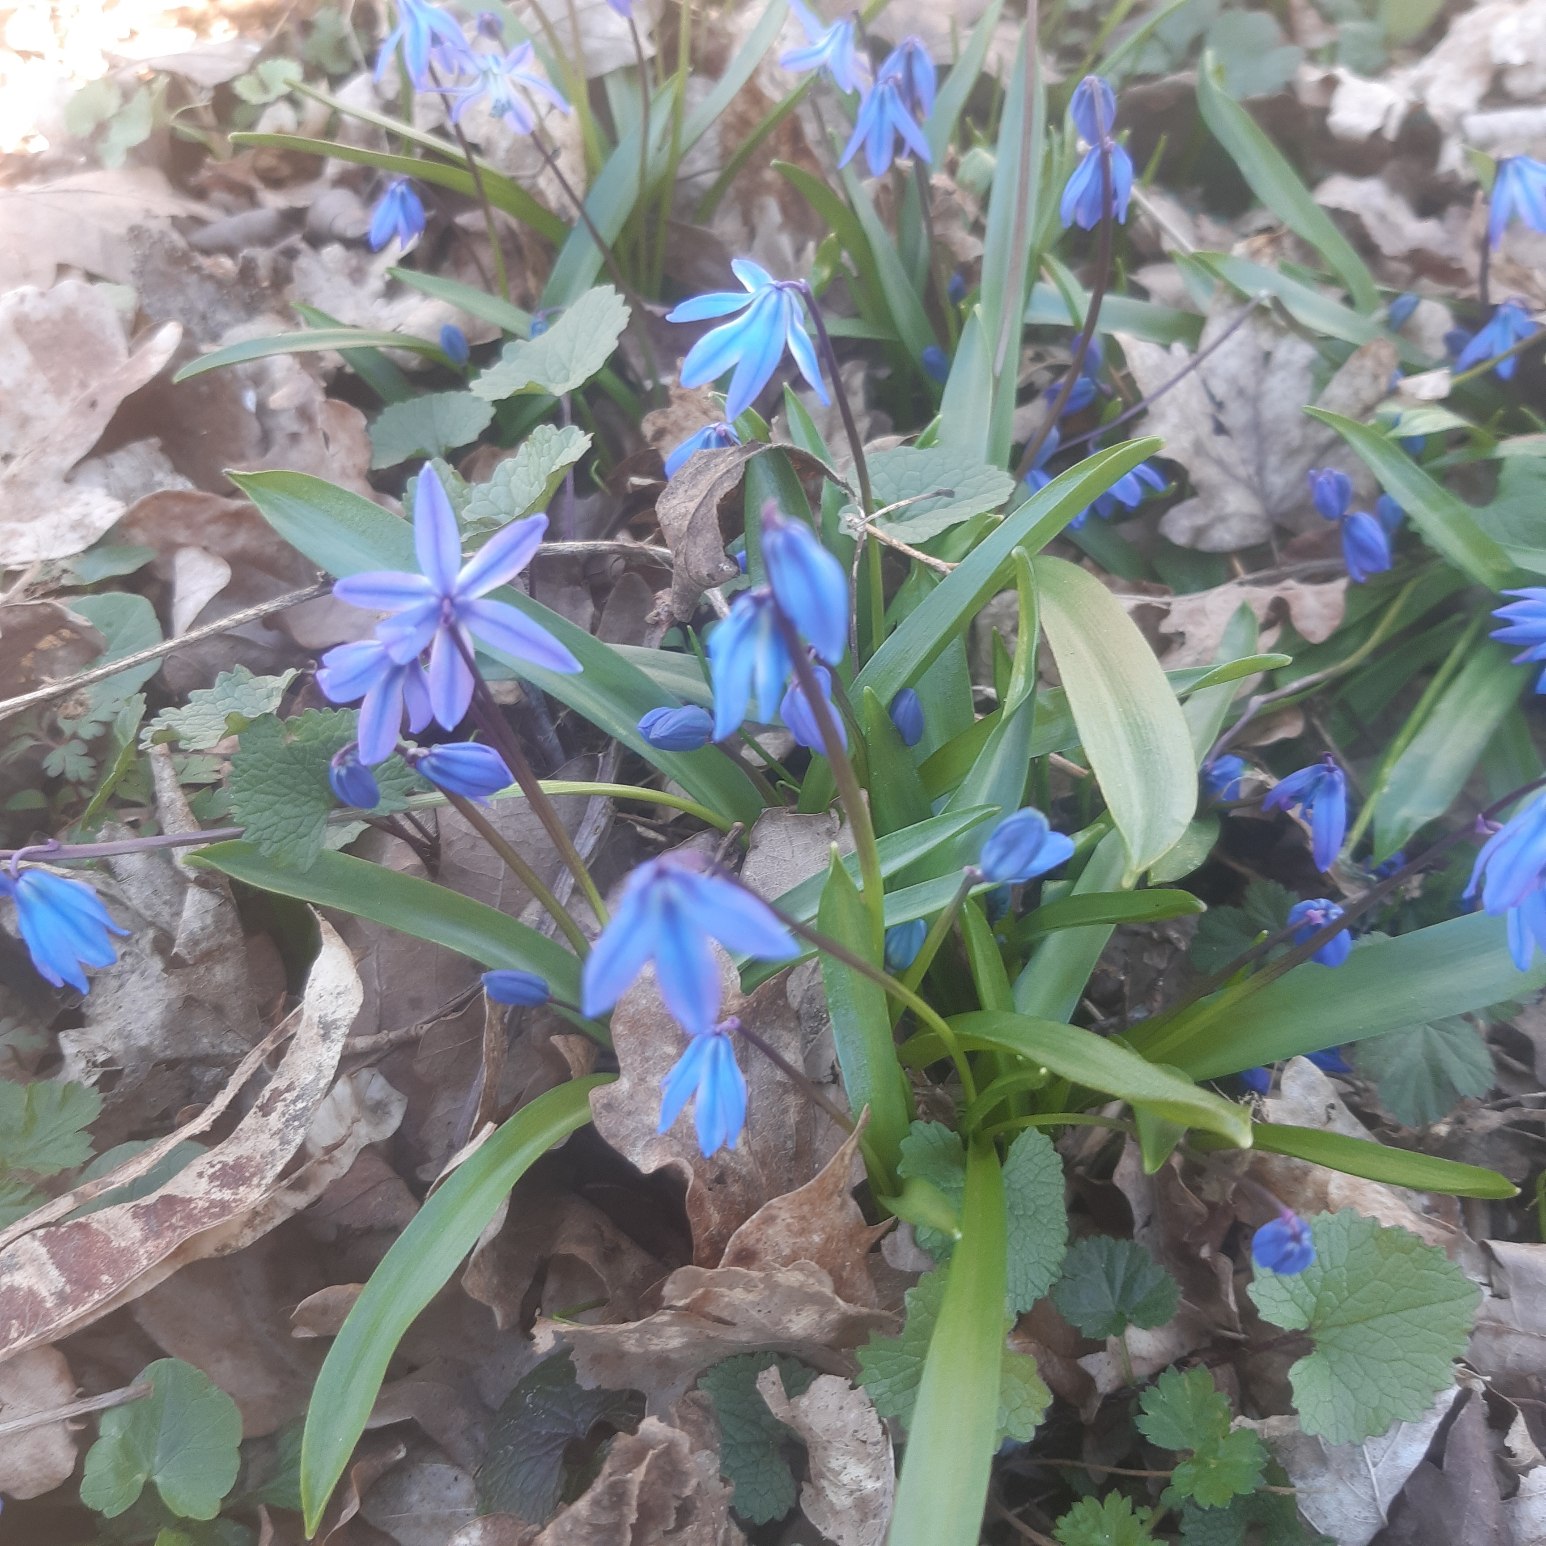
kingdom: Plantae
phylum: Tracheophyta
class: Liliopsida
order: Asparagales
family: Asparagaceae
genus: Scilla
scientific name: Scilla siberica
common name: Russisk skilla
